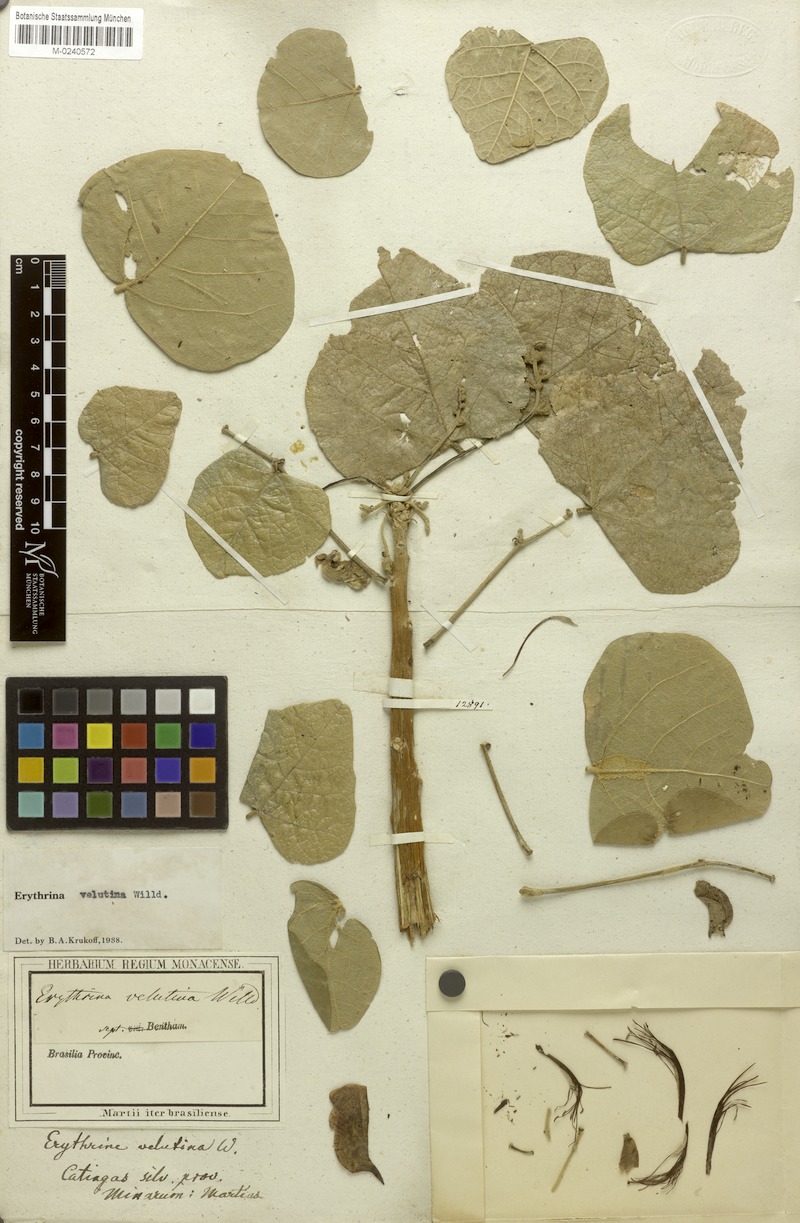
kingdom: Plantae
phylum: Tracheophyta
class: Magnoliopsida
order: Fabales
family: Fabaceae
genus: Erythrina
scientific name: Erythrina velutina
